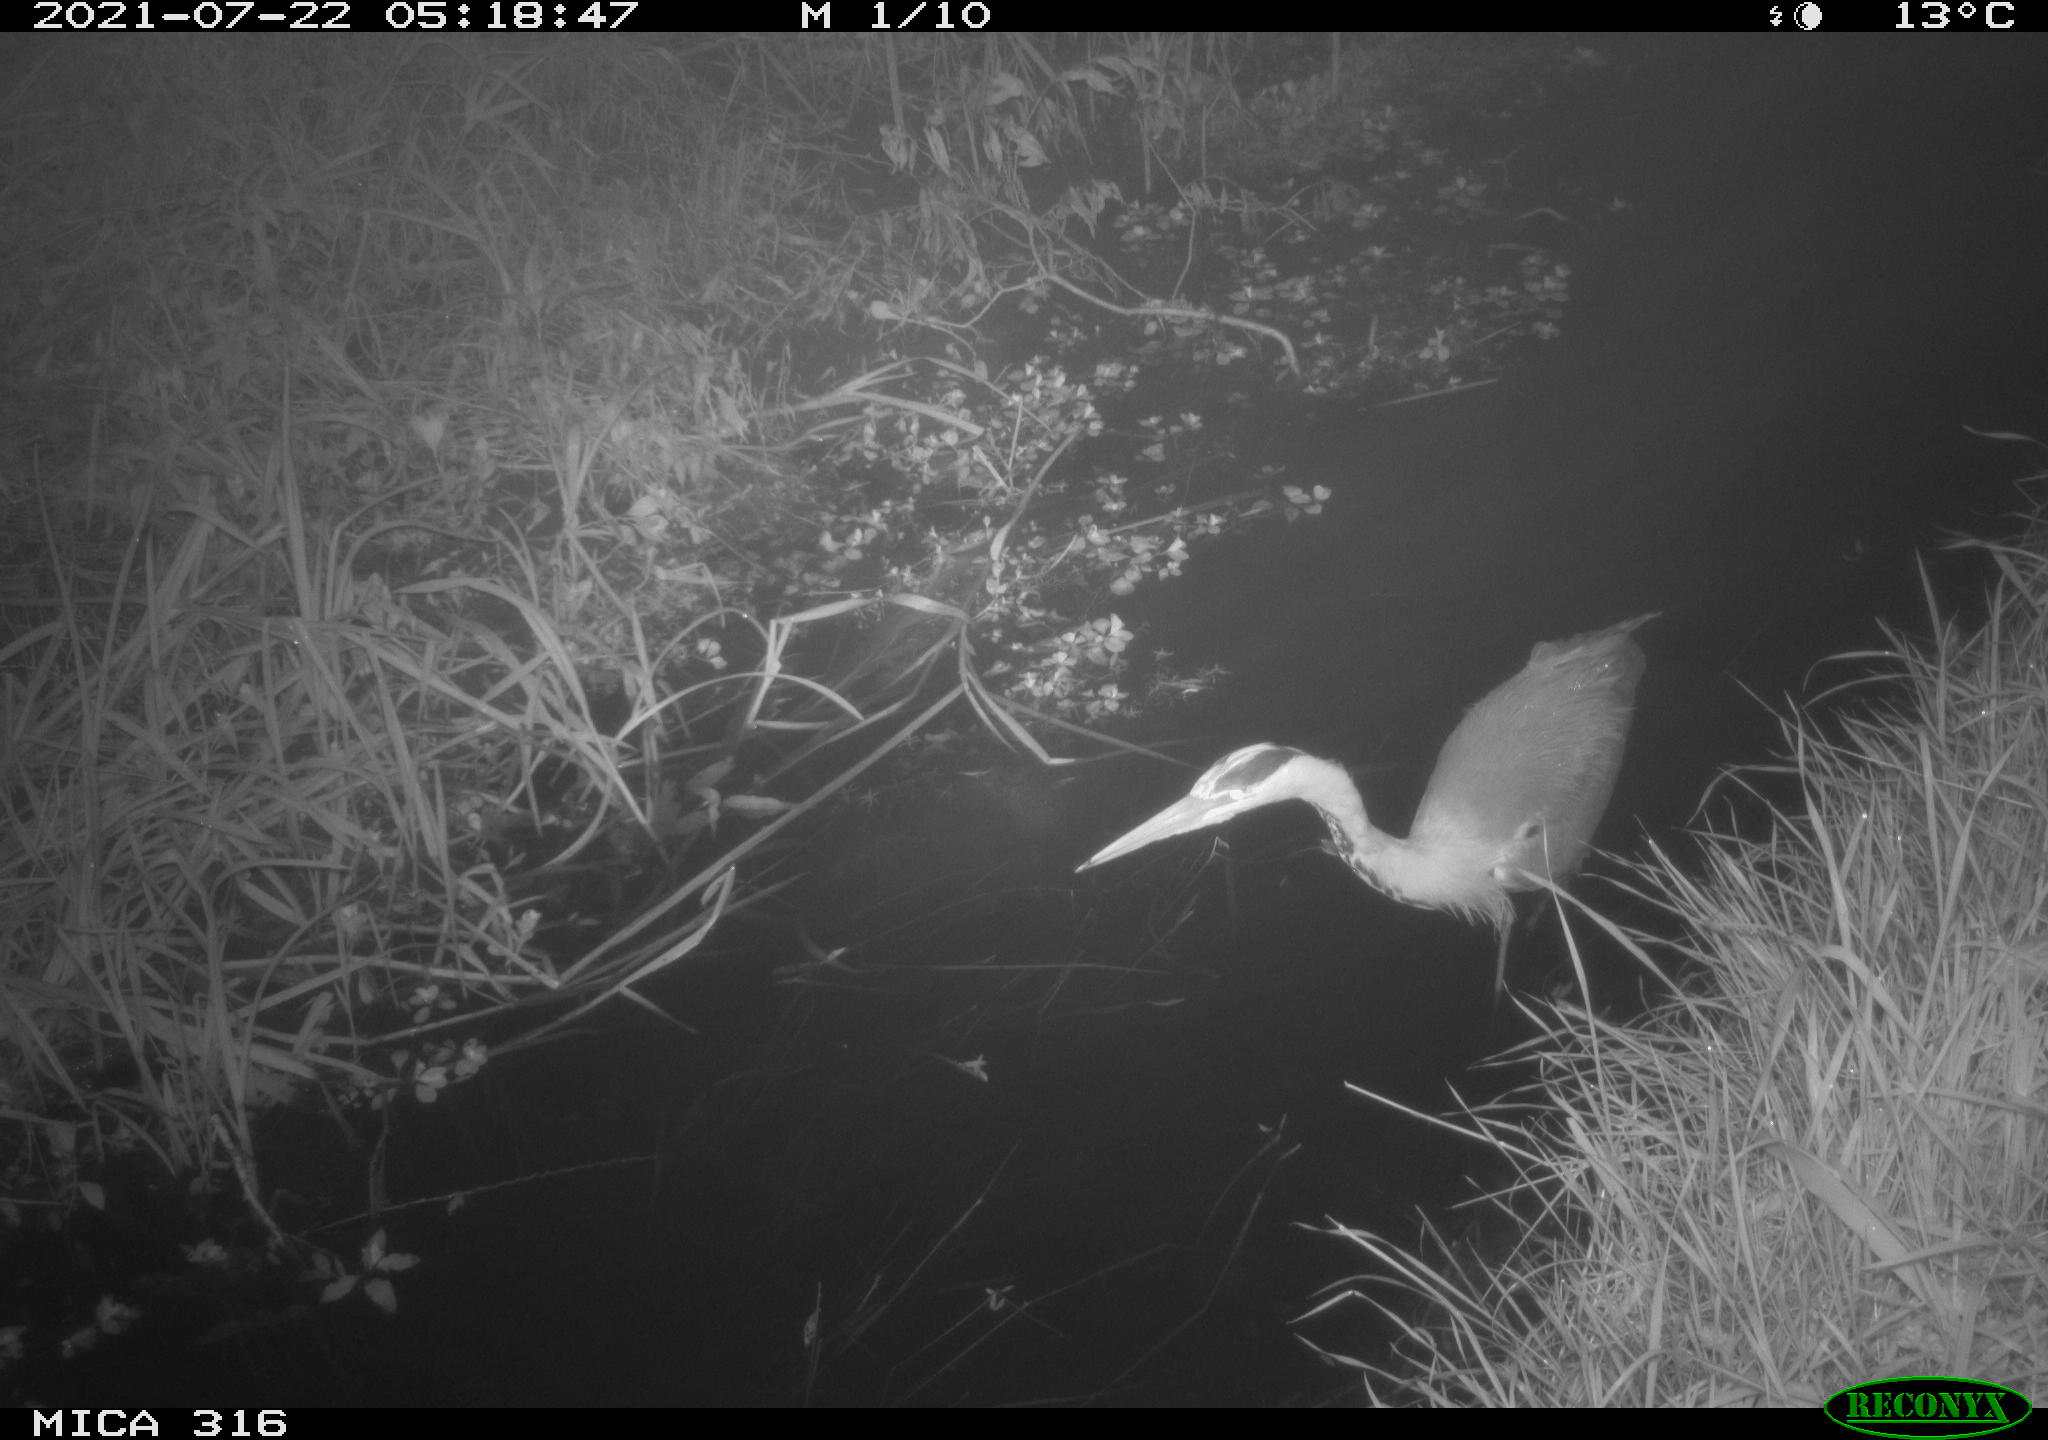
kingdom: Animalia
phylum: Chordata
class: Aves
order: Pelecaniformes
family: Ardeidae
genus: Ardea
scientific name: Ardea
